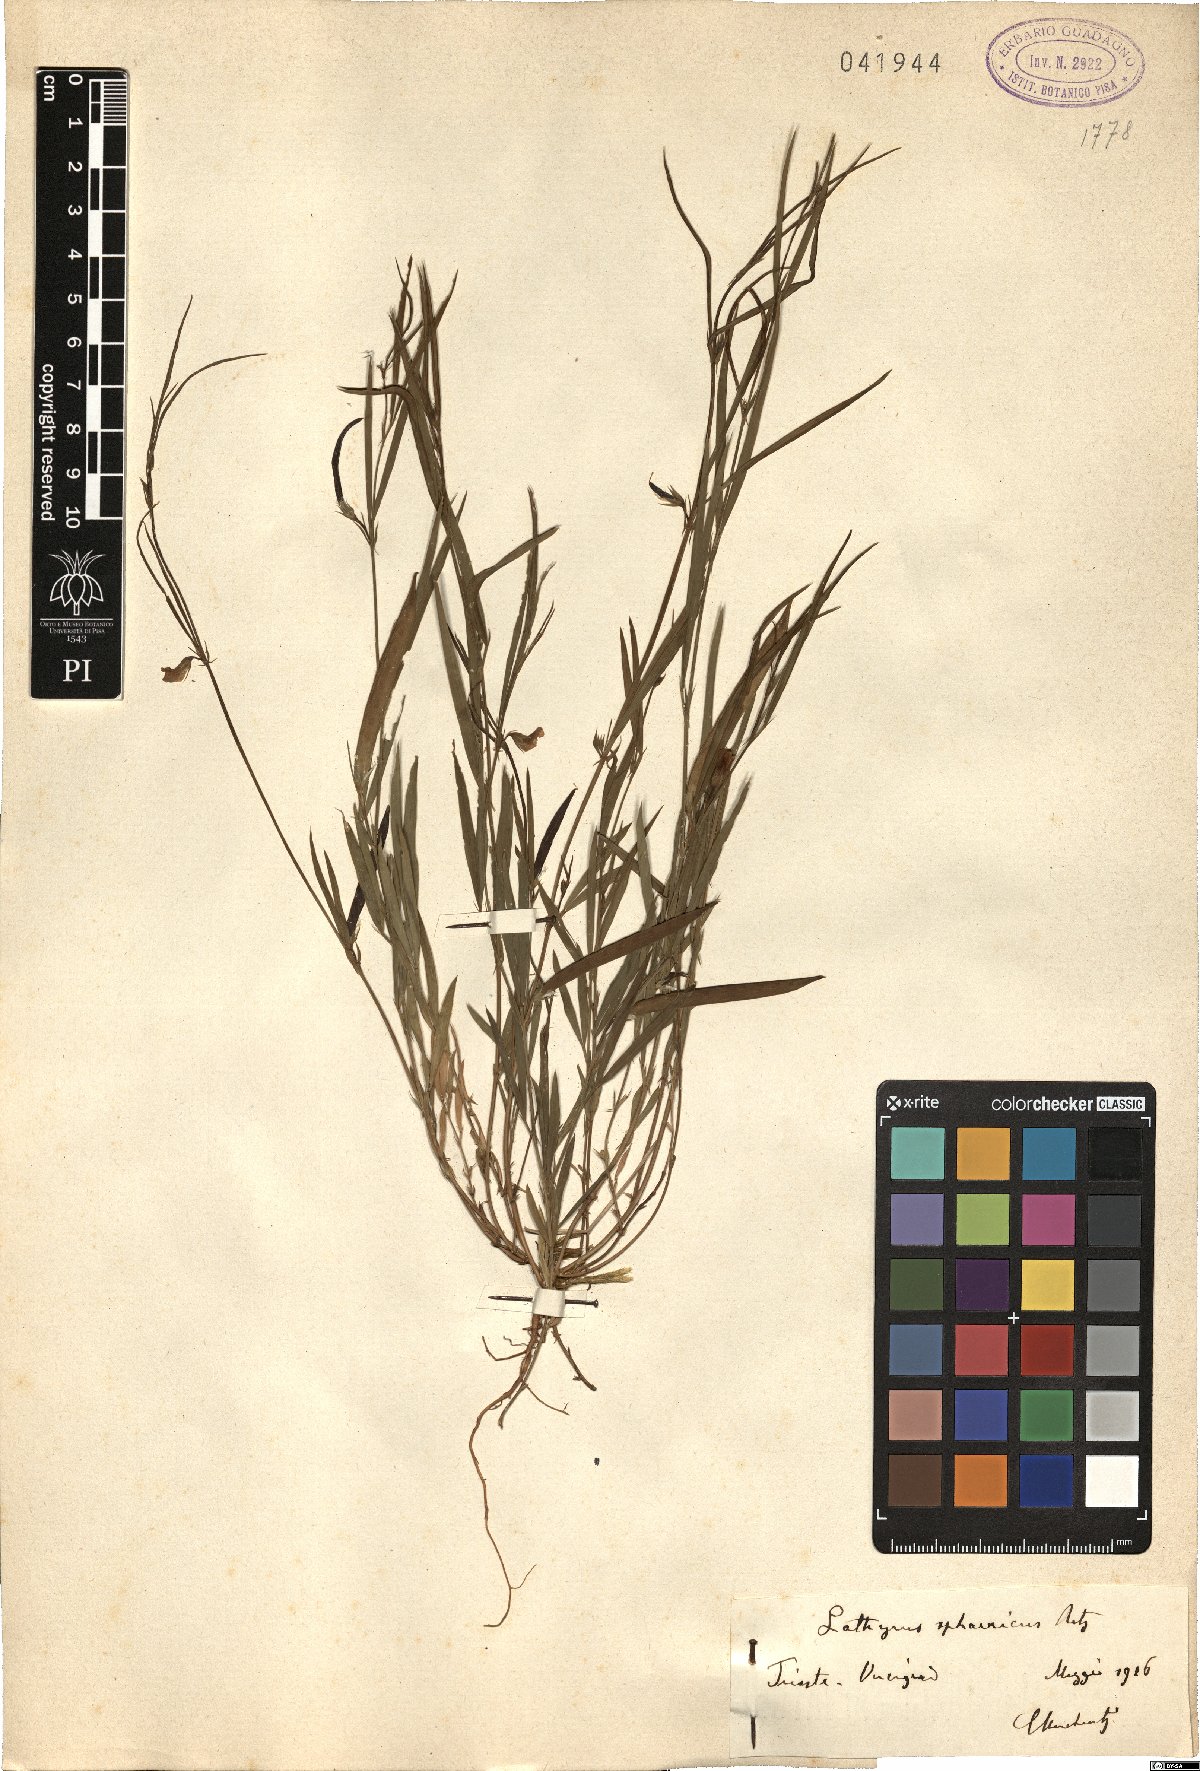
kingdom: Plantae
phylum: Tracheophyta
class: Magnoliopsida
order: Fabales
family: Fabaceae
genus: Lathyrus
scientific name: Lathyrus sphaericus
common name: Grass pea
